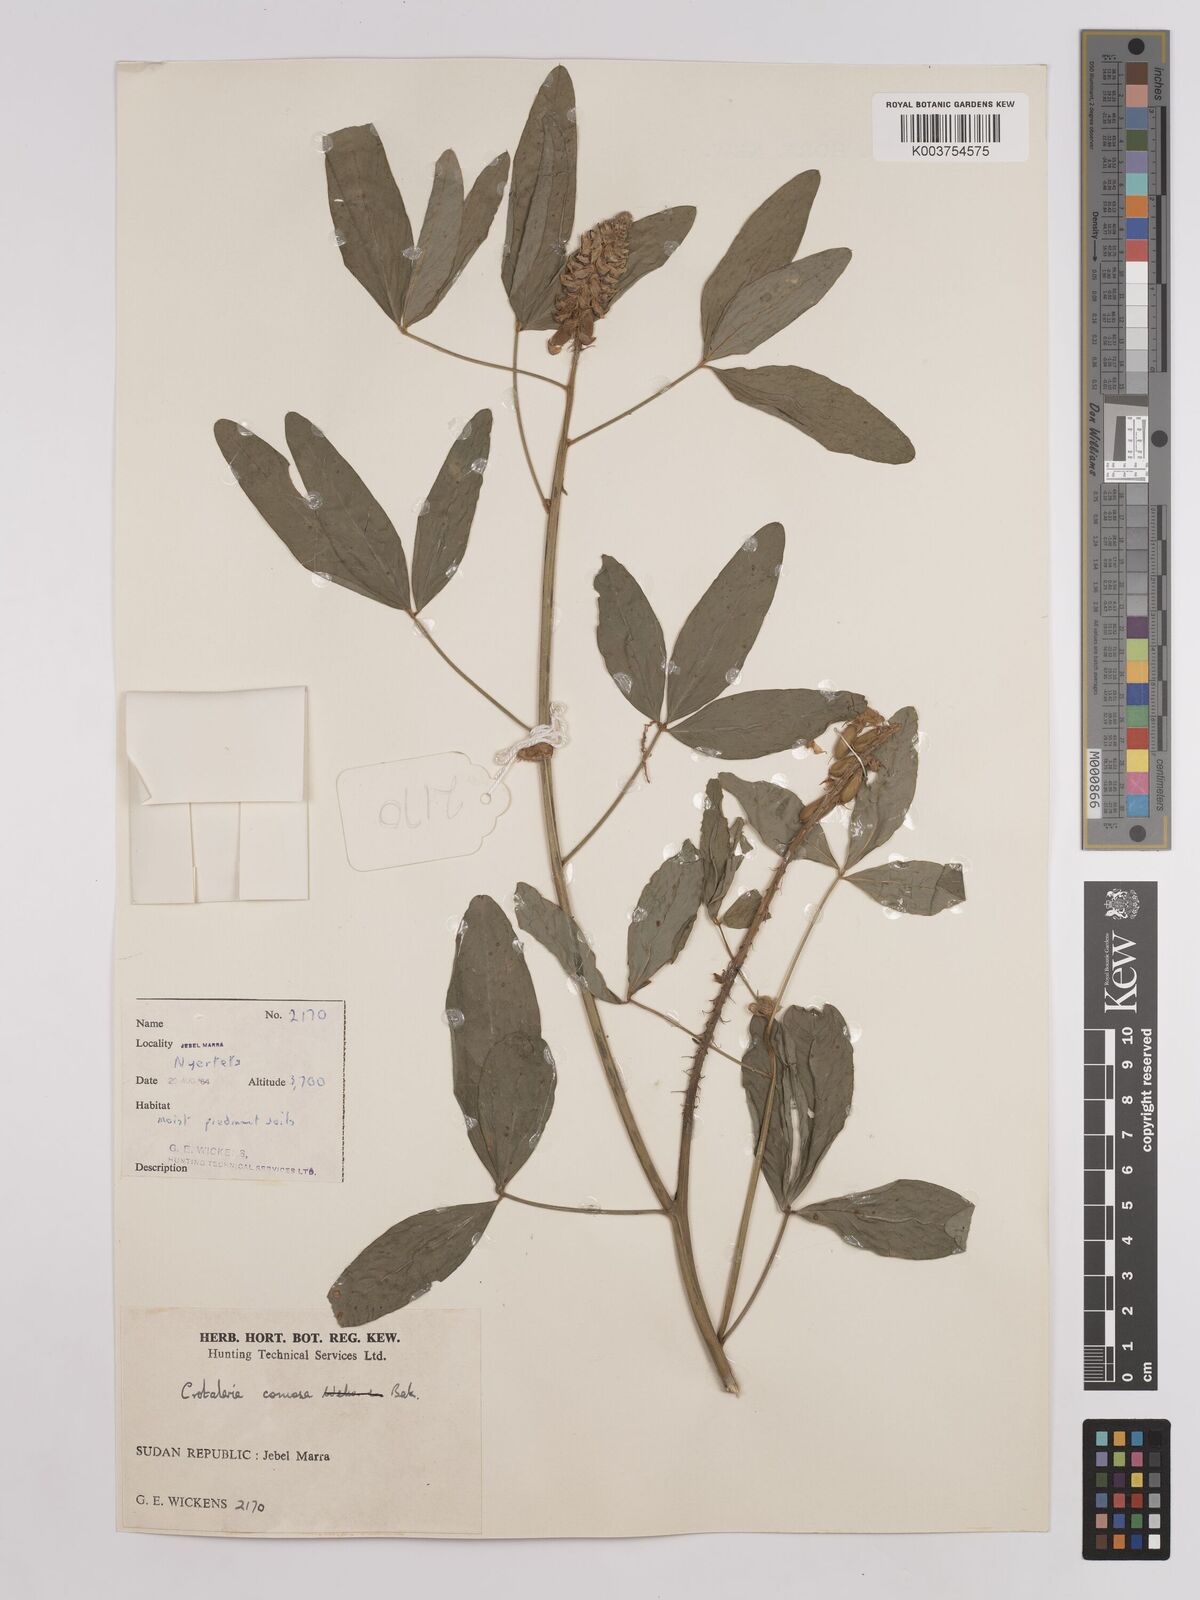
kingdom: Plantae
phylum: Tracheophyta
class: Magnoliopsida
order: Fabales
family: Fabaceae
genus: Crotalaria
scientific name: Crotalaria comosa
